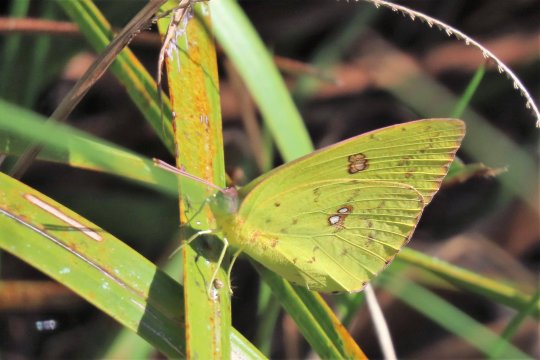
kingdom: Animalia
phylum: Arthropoda
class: Insecta
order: Lepidoptera
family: Pieridae
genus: Phoebis
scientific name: Phoebis sennae
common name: Cloudless Sulphur
